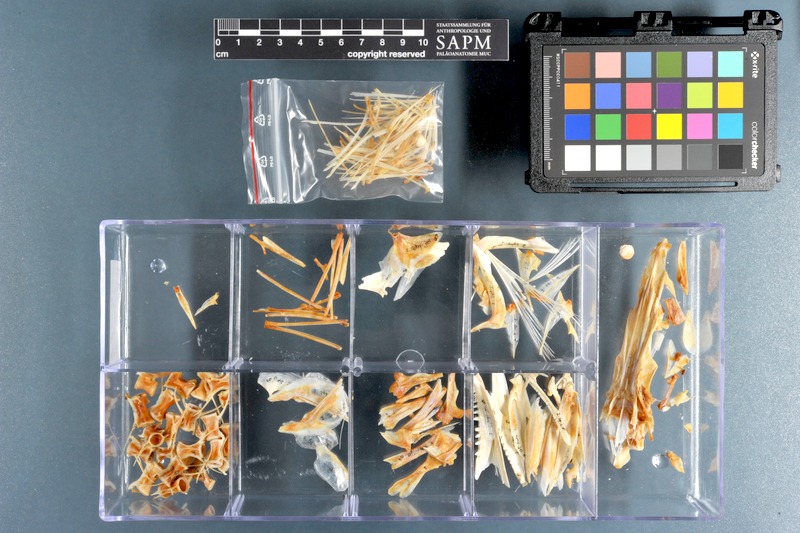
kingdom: Animalia
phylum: Chordata
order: Perciformes
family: Sphyraenidae
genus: Sphyraena
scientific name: Sphyraena jello
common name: Pickhandle barracuda
